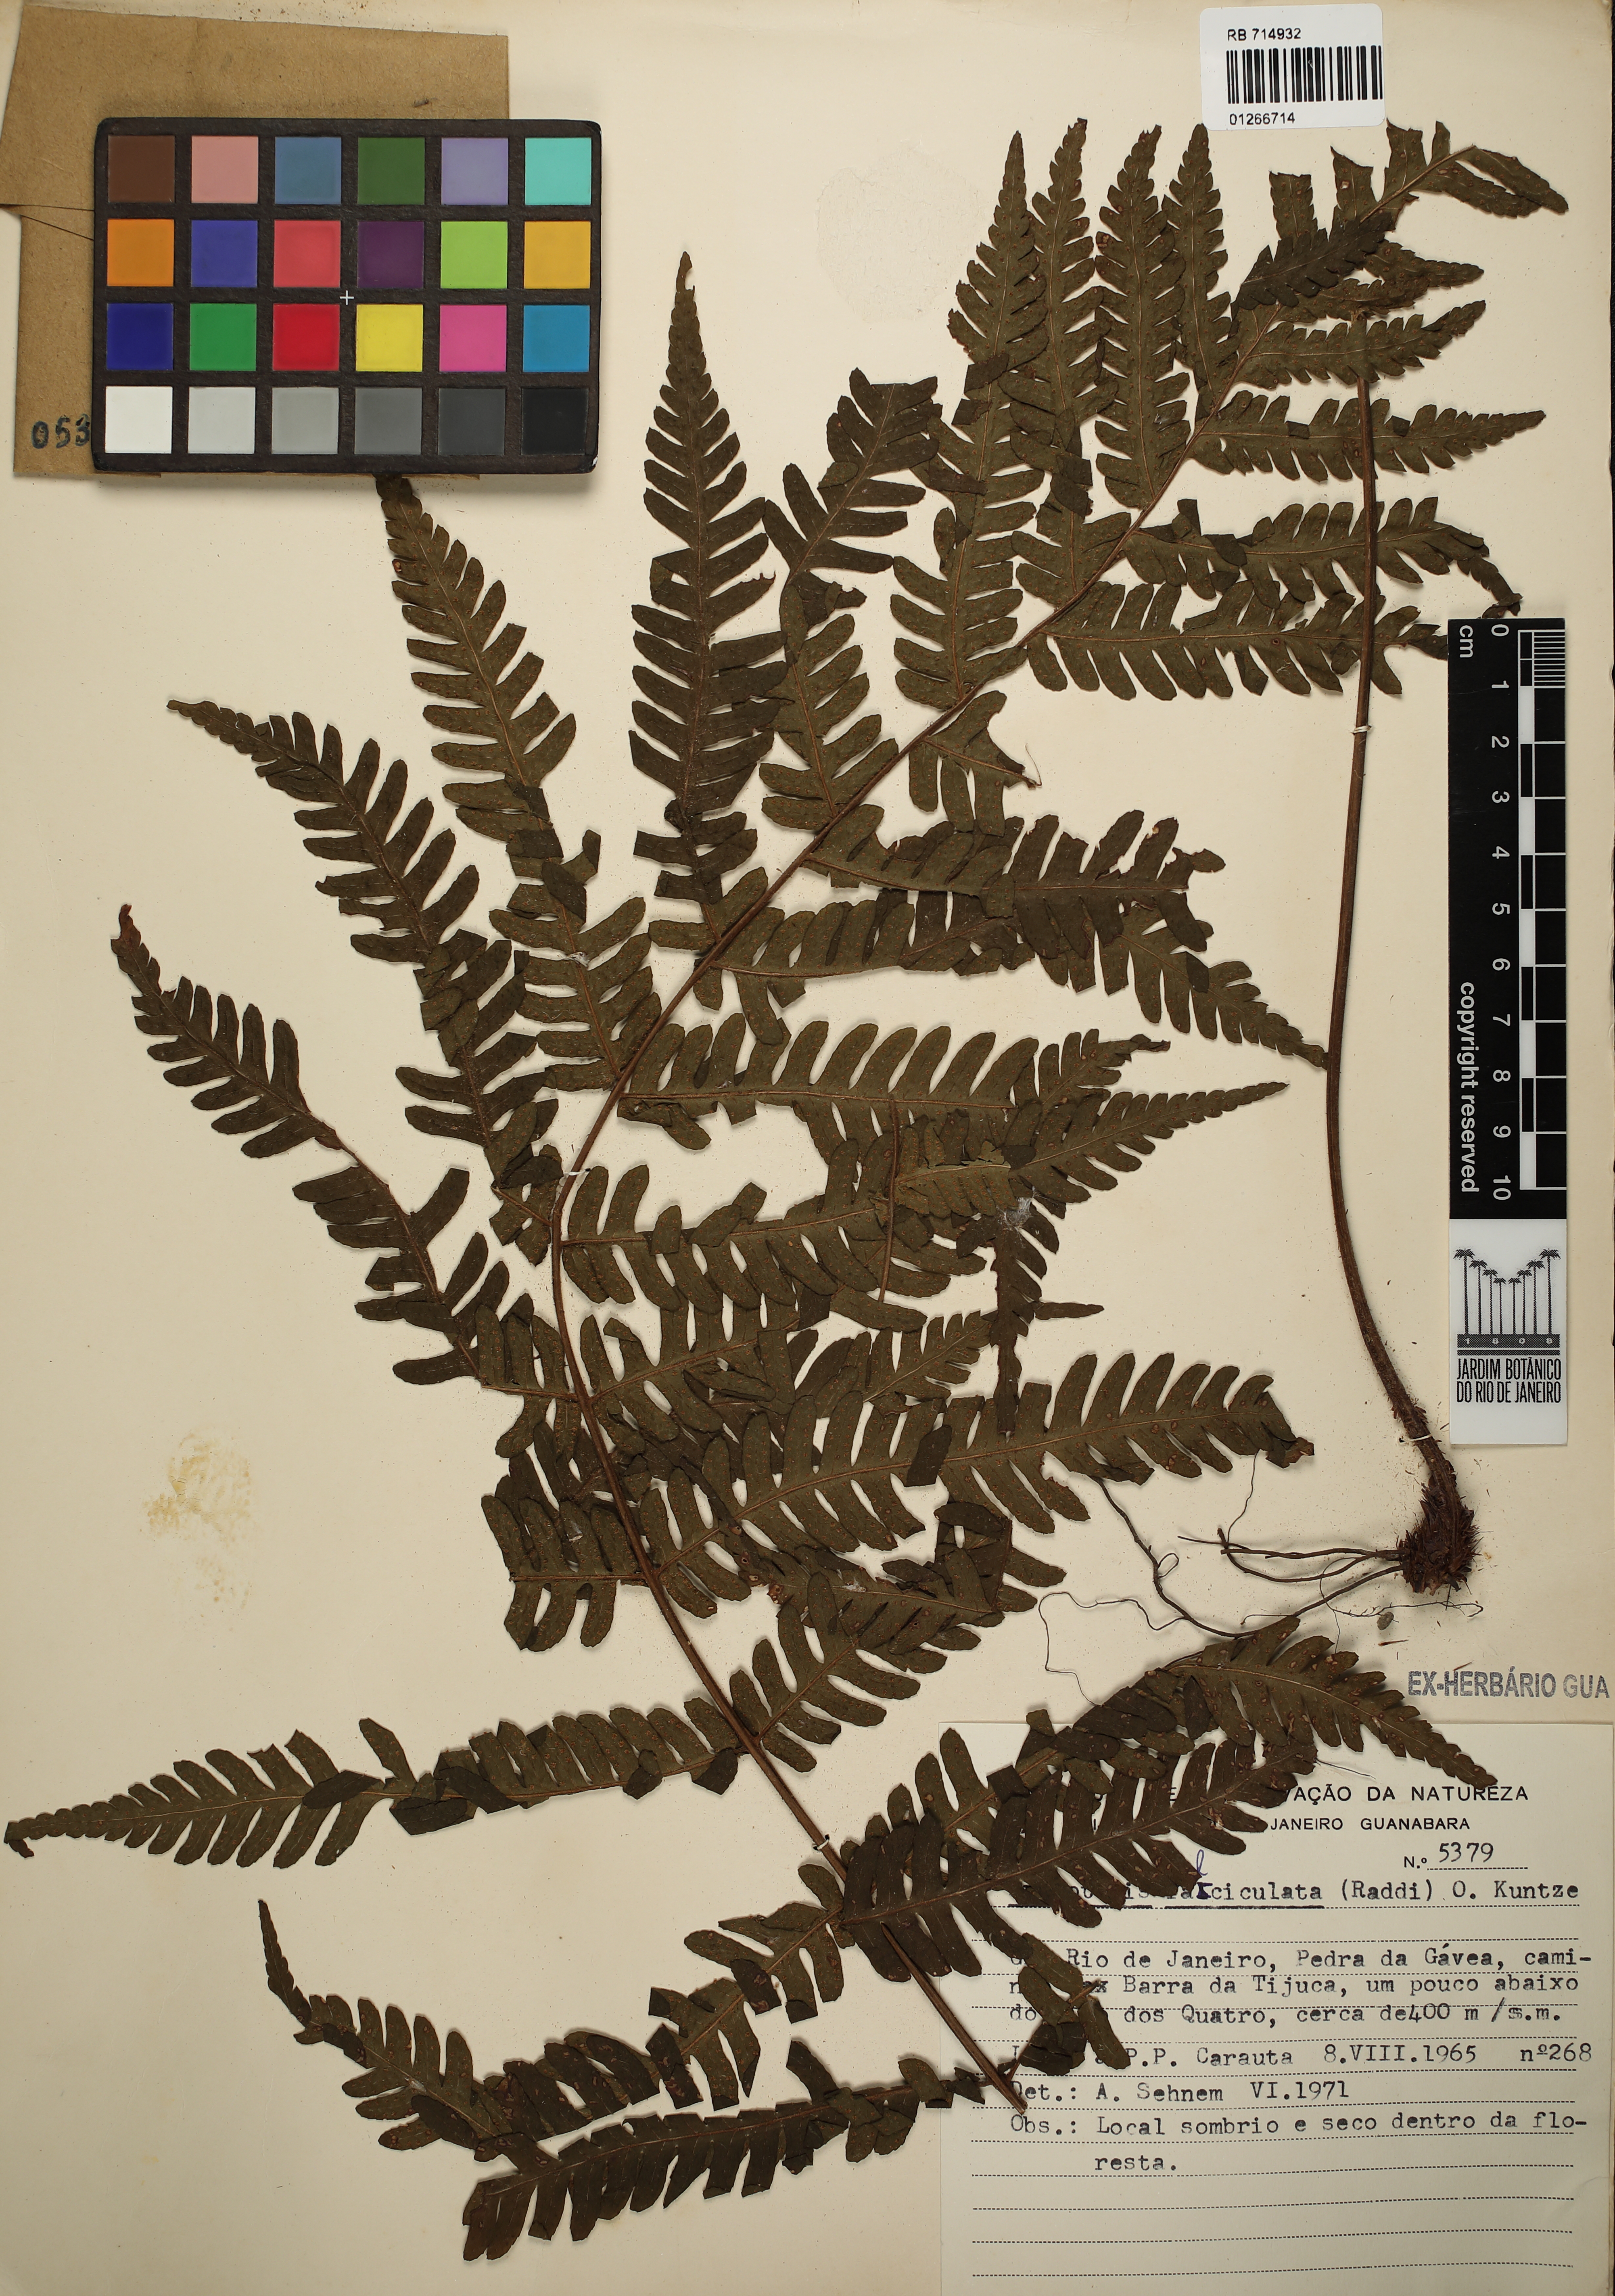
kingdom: Plantae
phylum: Tracheophyta
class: Polypodiopsida
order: Polypodiales
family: Dryopteridaceae
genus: Ctenitis
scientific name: Ctenitis falciculata
